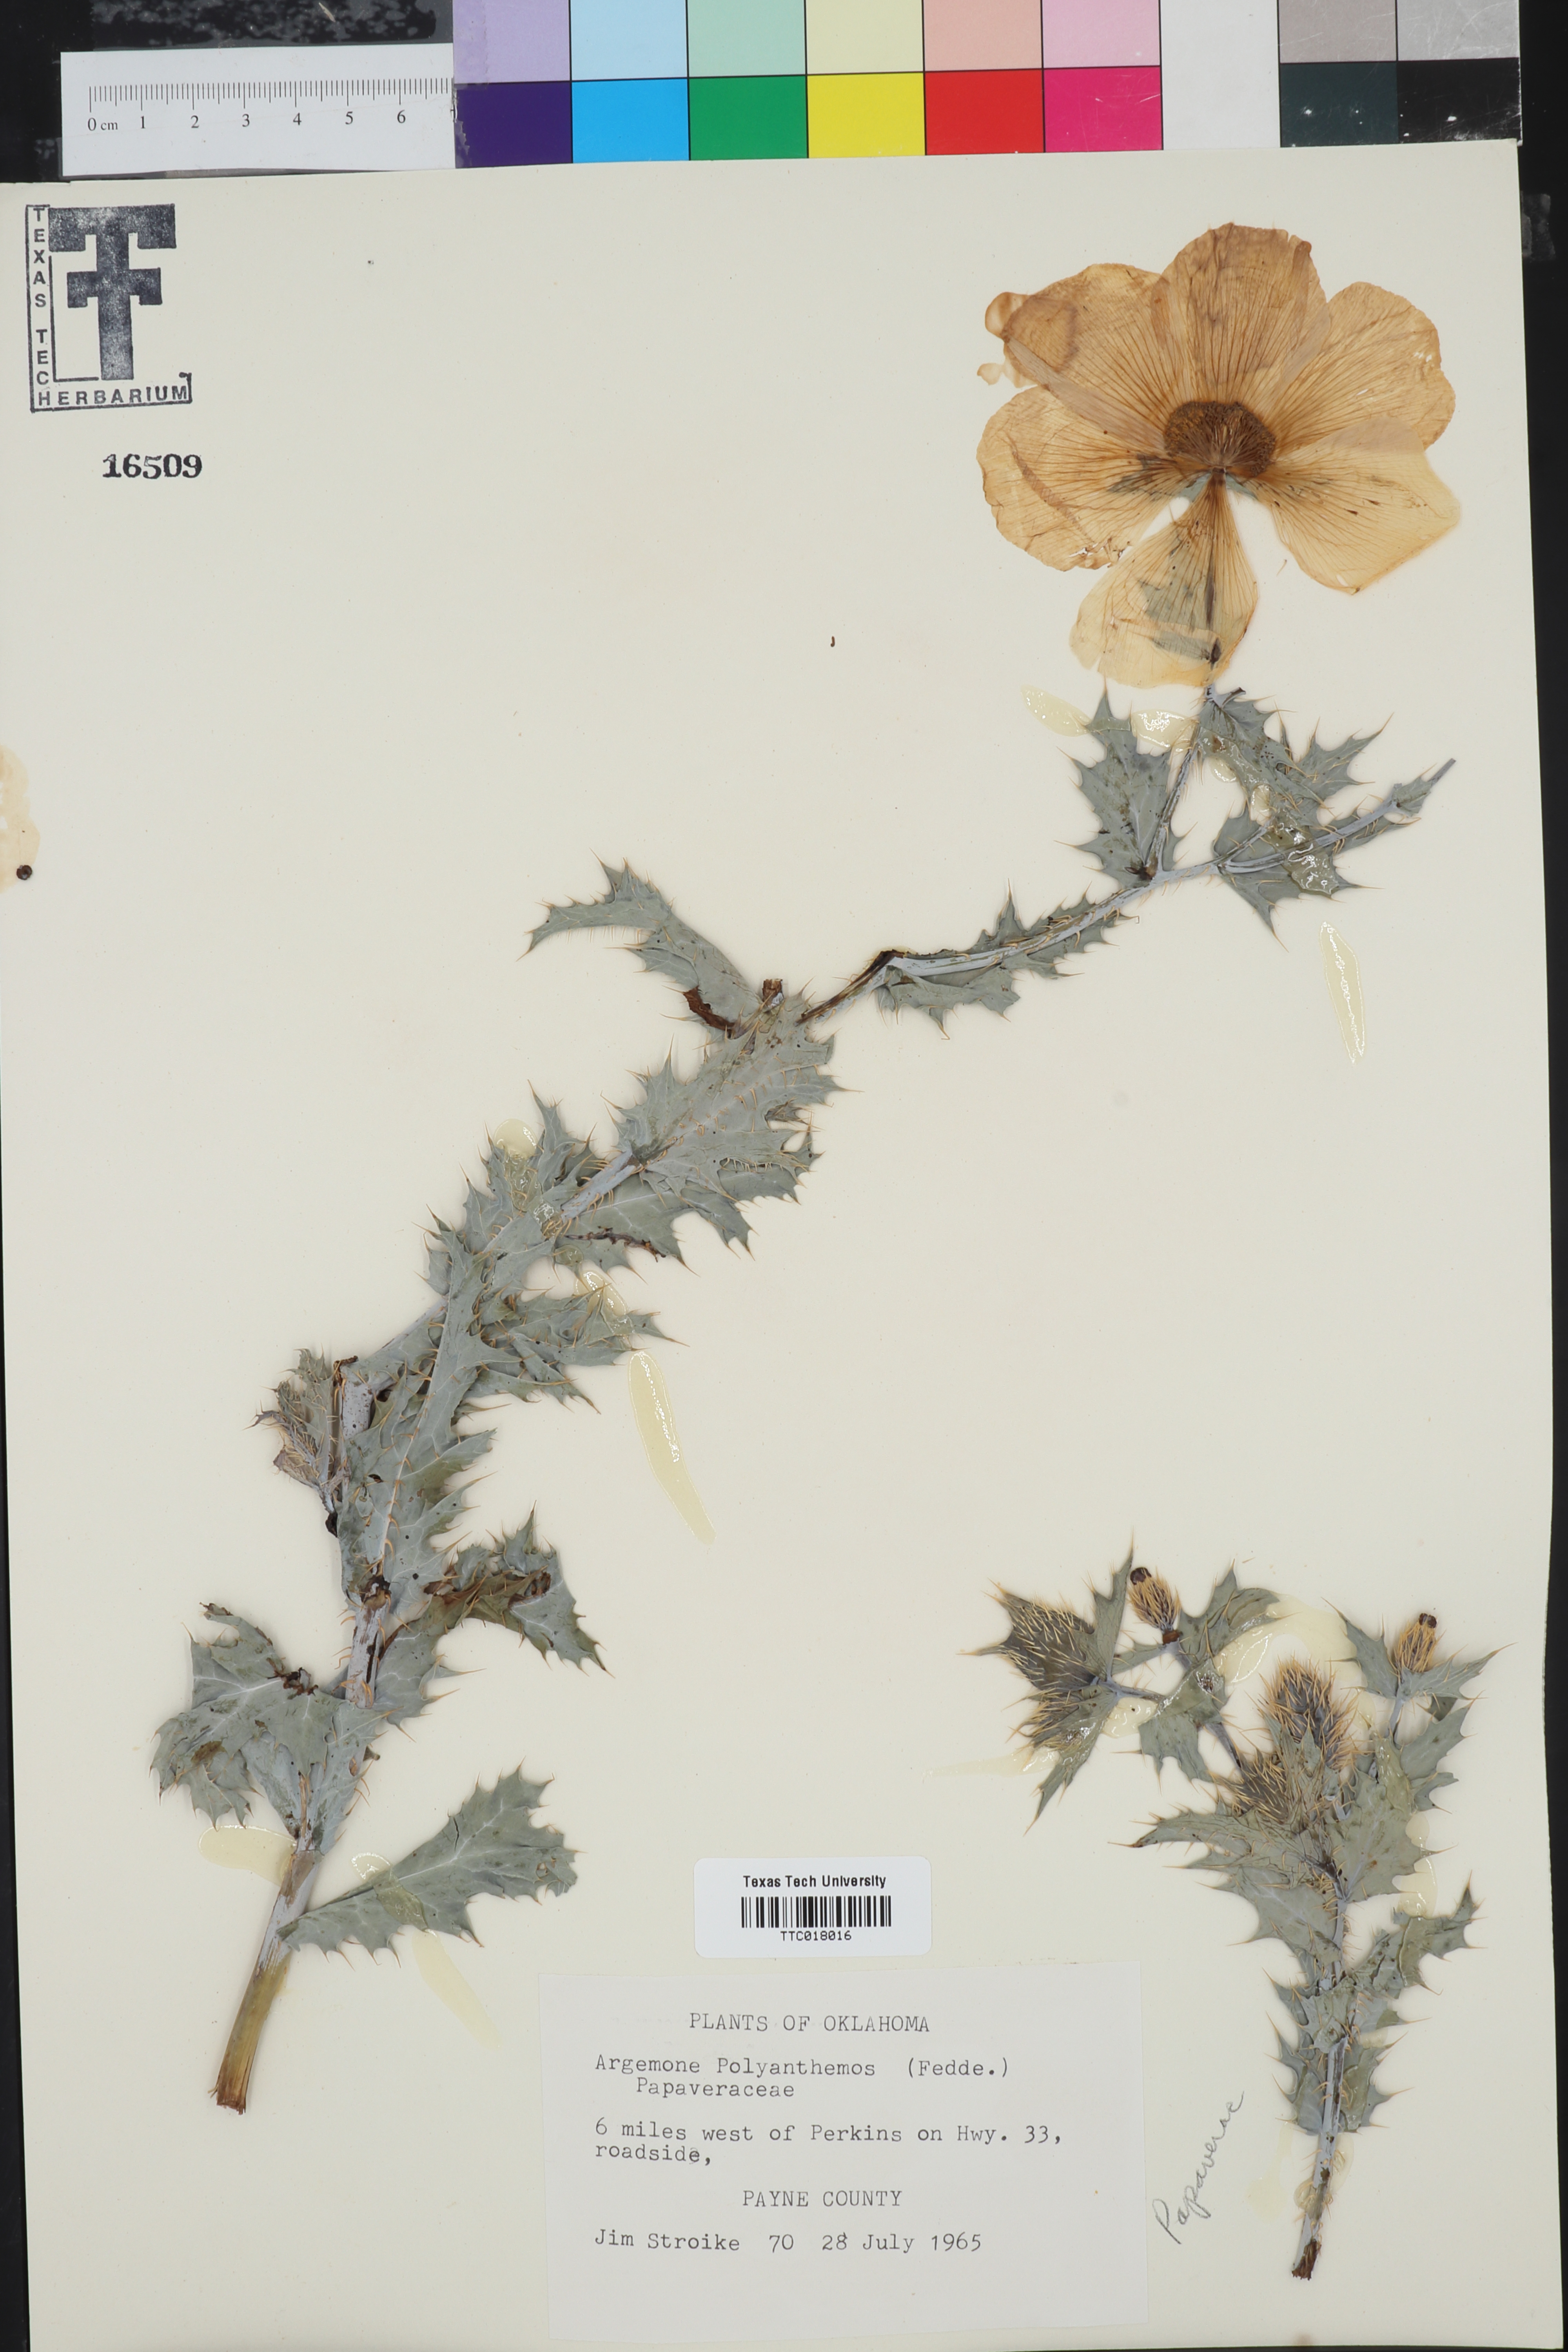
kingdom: Plantae
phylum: Tracheophyta
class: Magnoliopsida
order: Ranunculales
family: Papaveraceae
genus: Argemone
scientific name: Argemone polyanthemos
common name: Plains prickly-poppy
